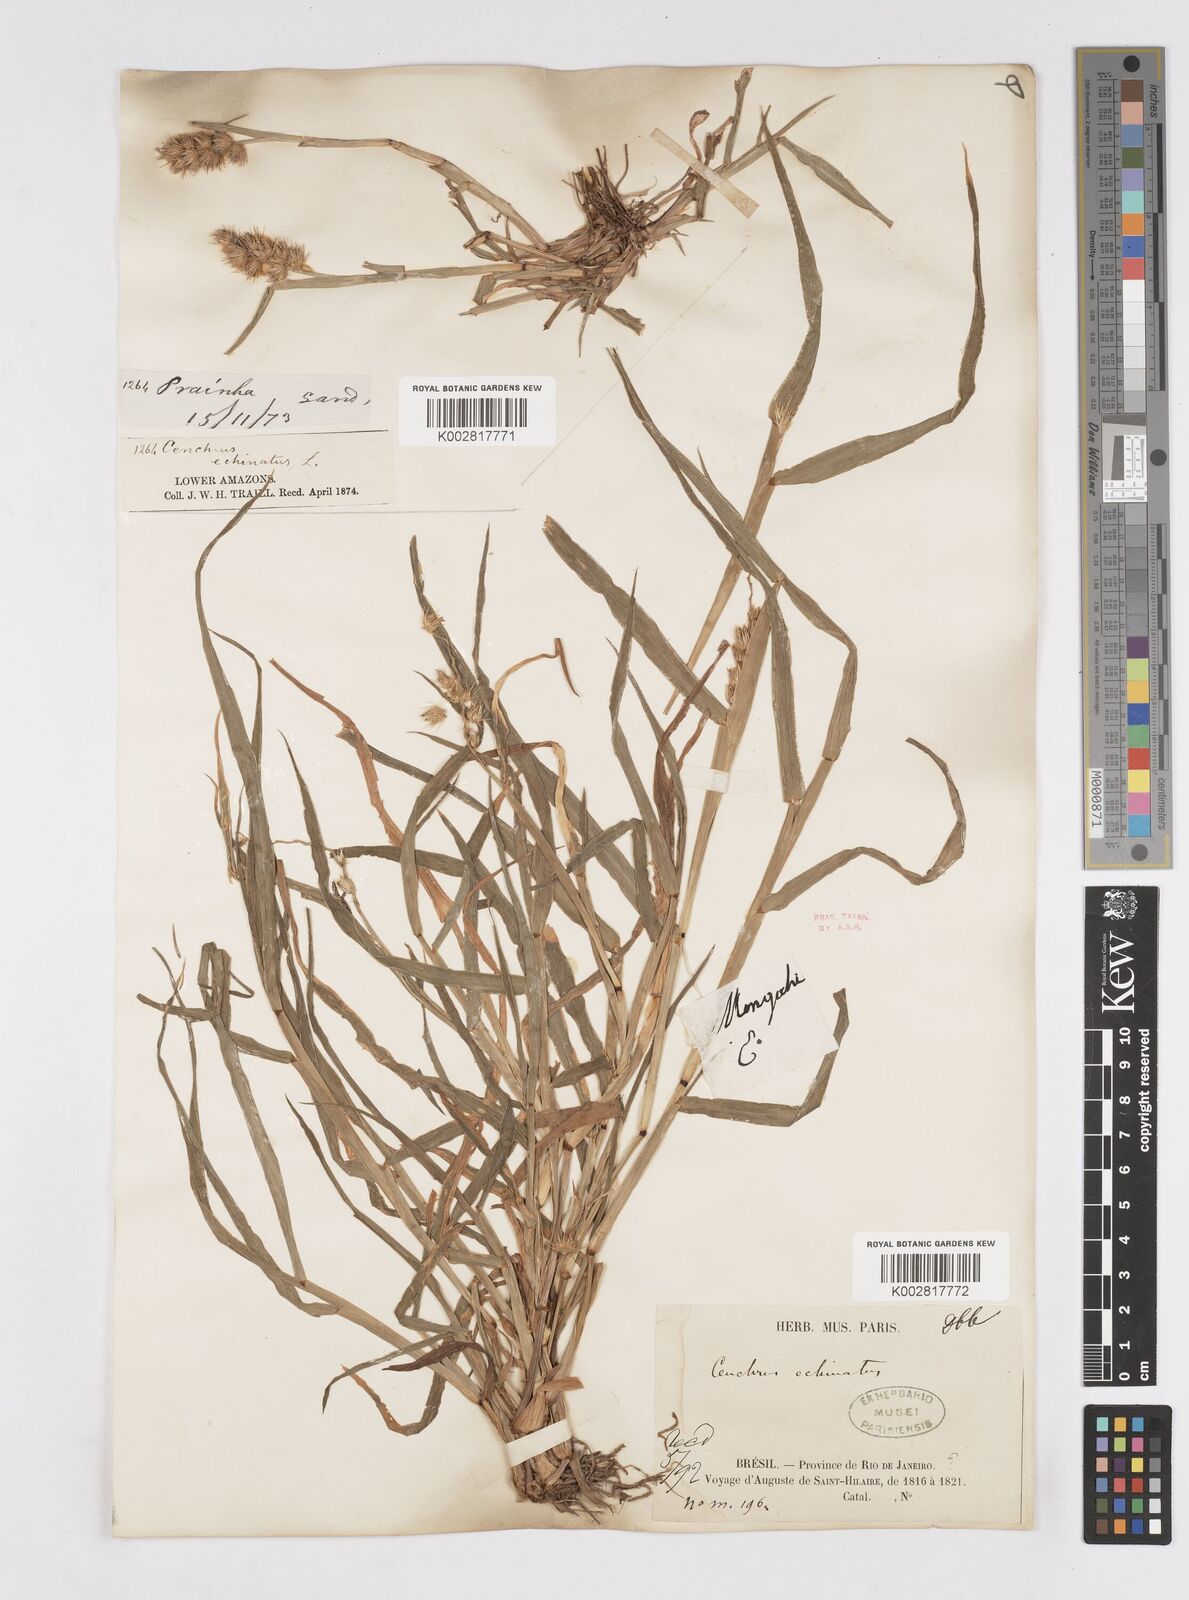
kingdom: Plantae
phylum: Tracheophyta
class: Liliopsida
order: Poales
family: Poaceae
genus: Cenchrus
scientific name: Cenchrus
